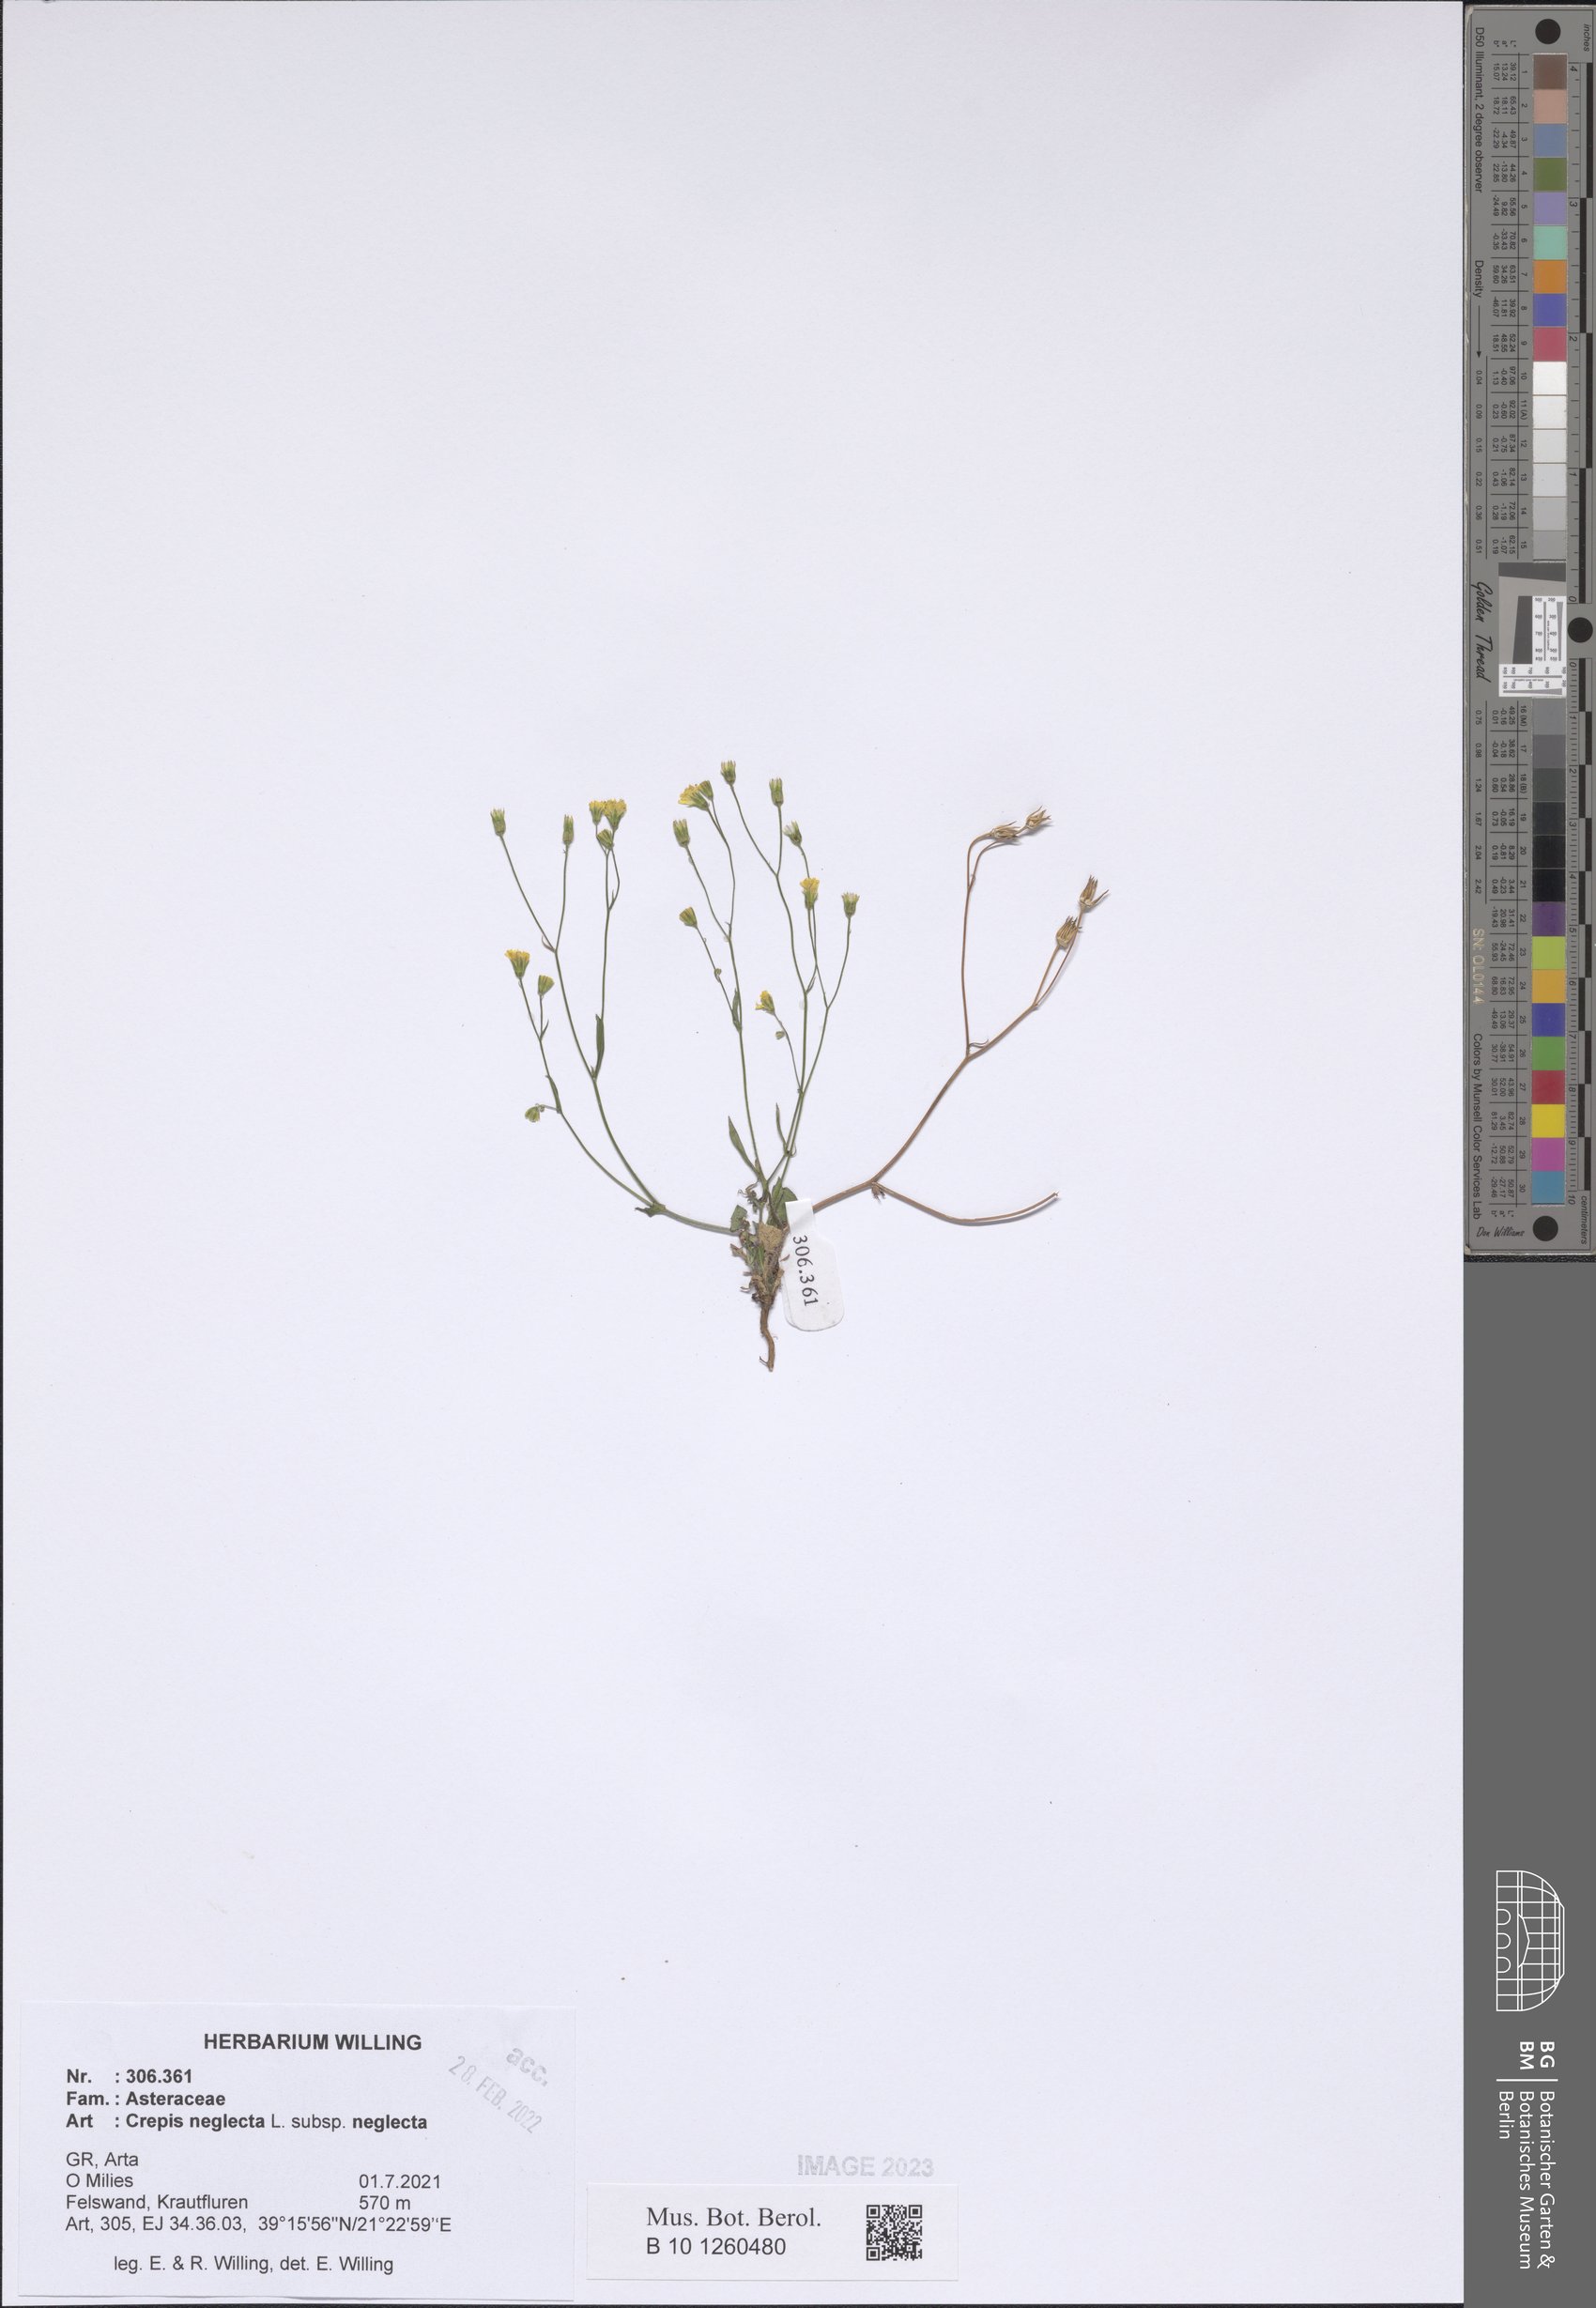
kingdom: Plantae
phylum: Tracheophyta
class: Magnoliopsida
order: Asterales
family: Asteraceae
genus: Crepis
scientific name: Crepis neglecta
